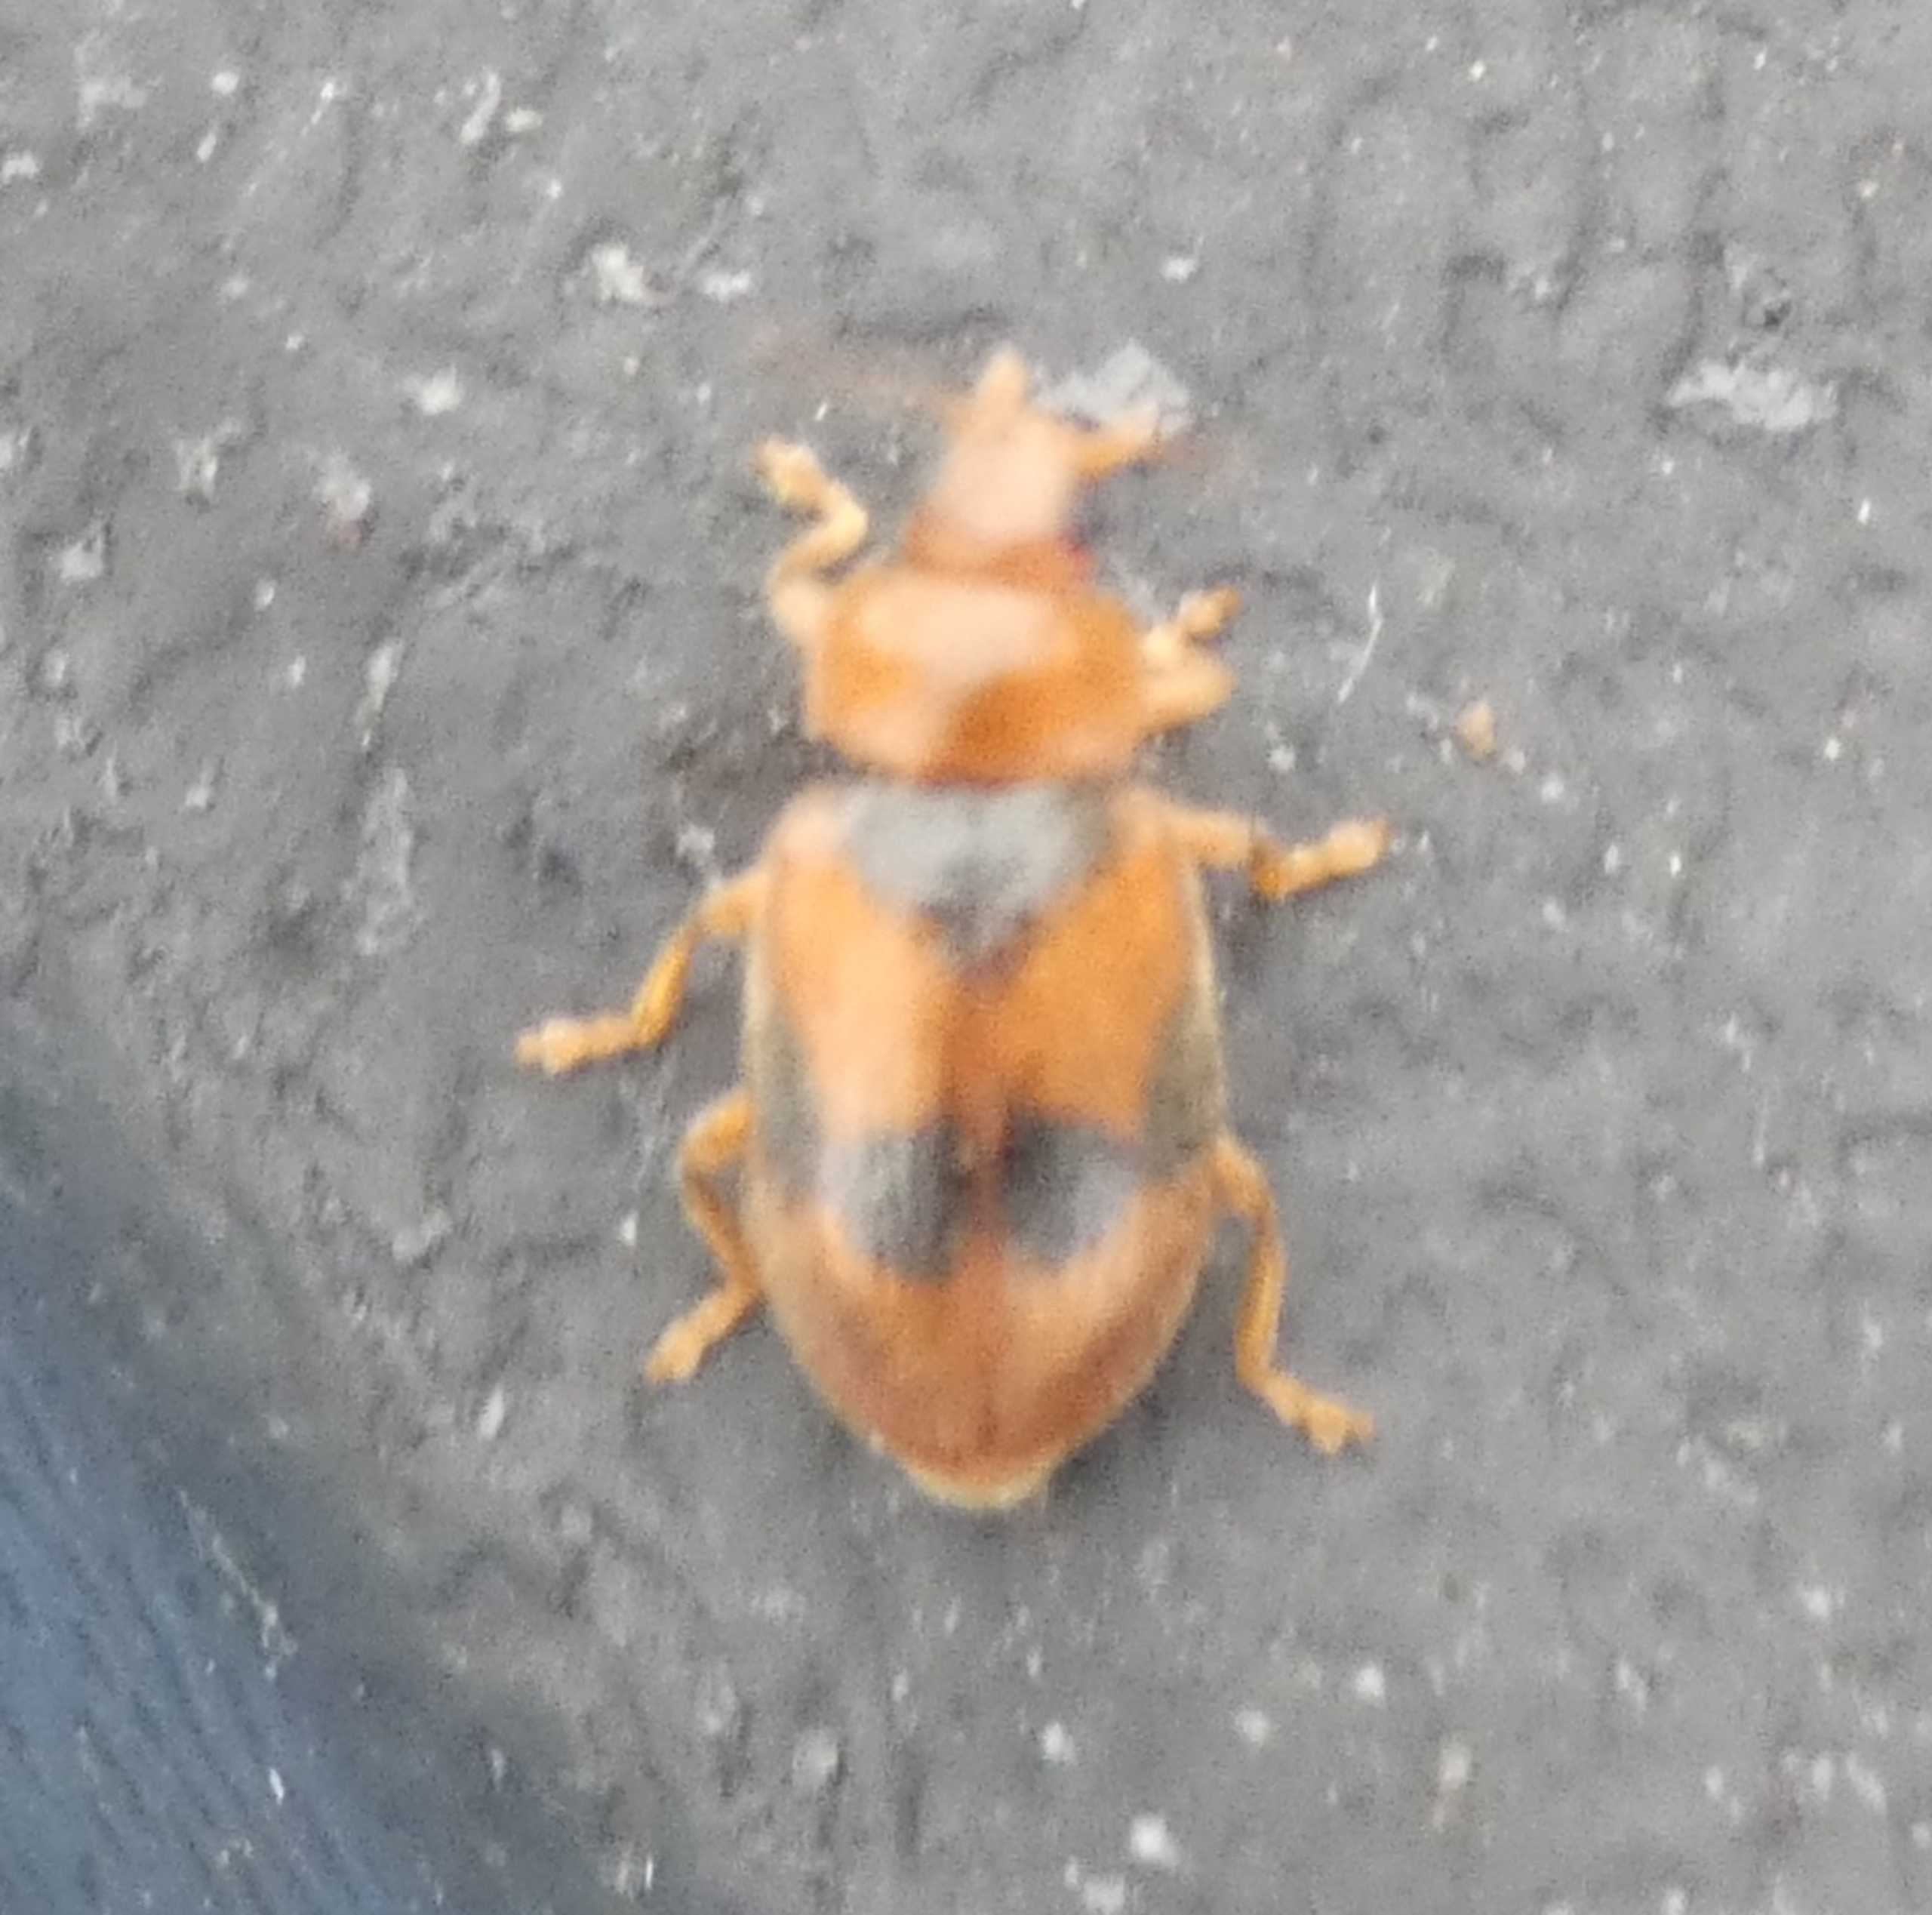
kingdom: Animalia
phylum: Arthropoda
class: Insecta
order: Coleoptera
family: Coccinellidae
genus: Coccidula
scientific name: Coccidula scutellata
